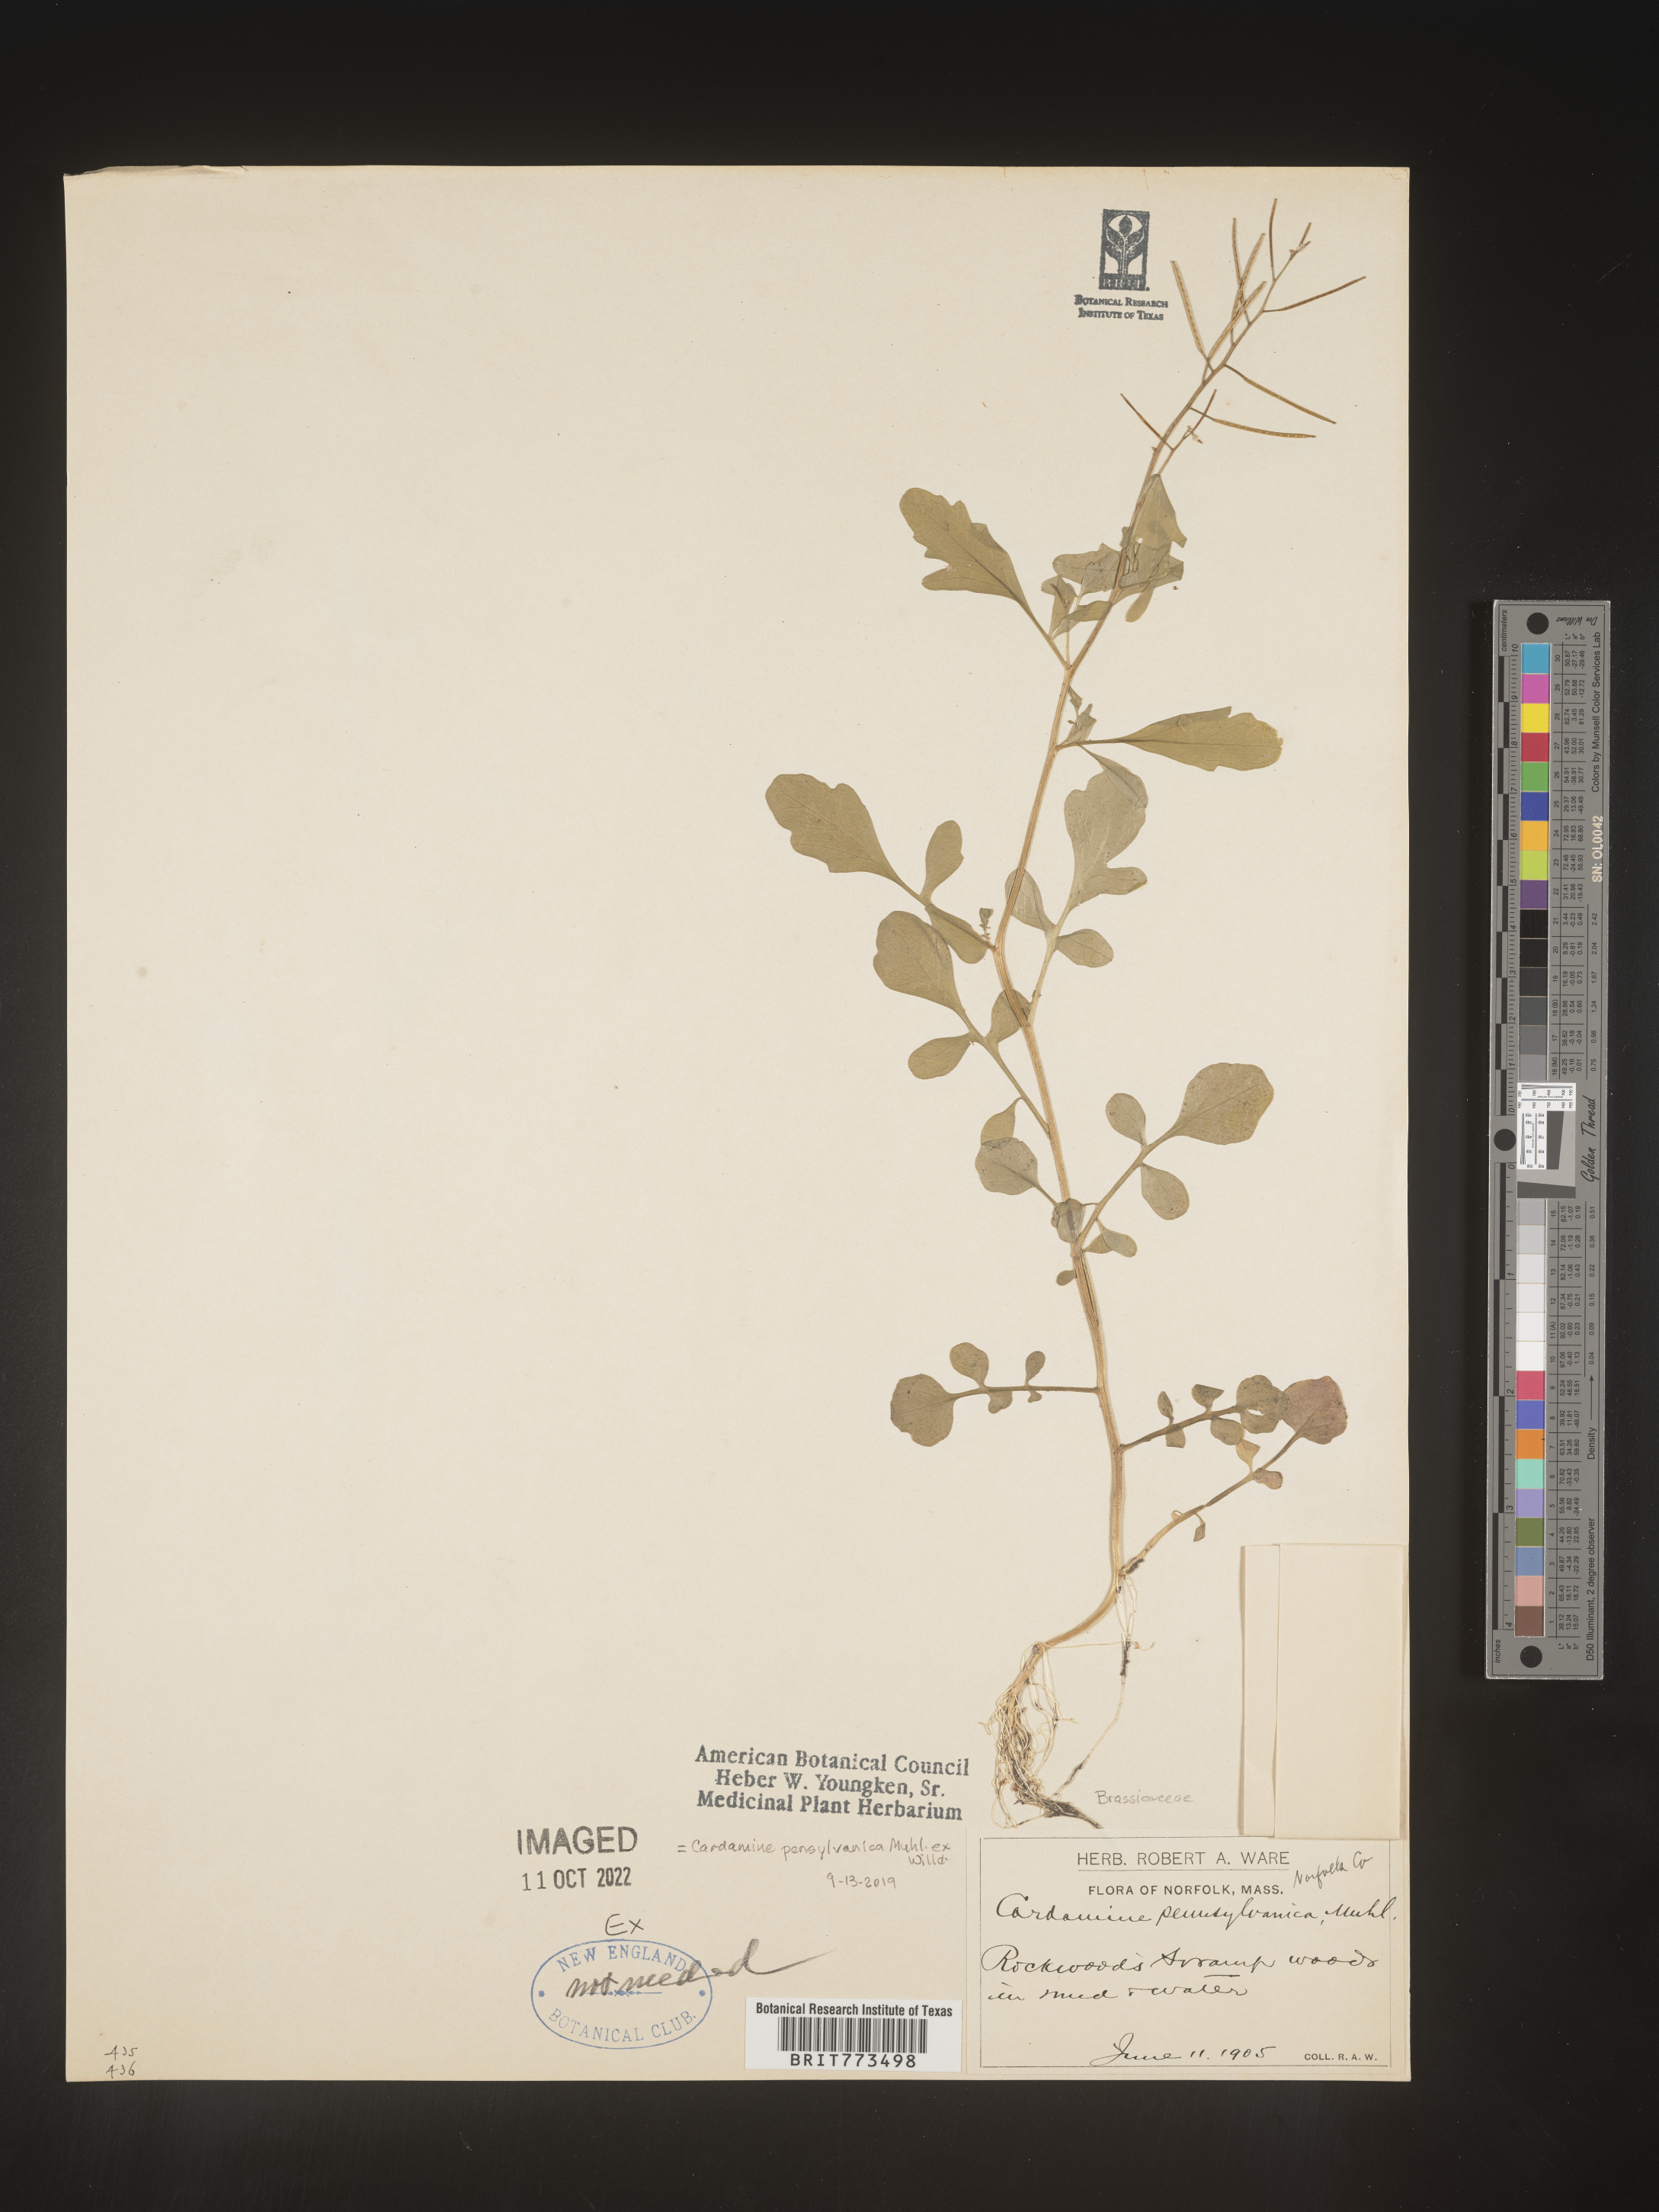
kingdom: Plantae
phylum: Tracheophyta
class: Magnoliopsida
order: Brassicales
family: Brassicaceae
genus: Cardamine
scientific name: Cardamine pensylvanica
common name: Pennsylvania bittercress
